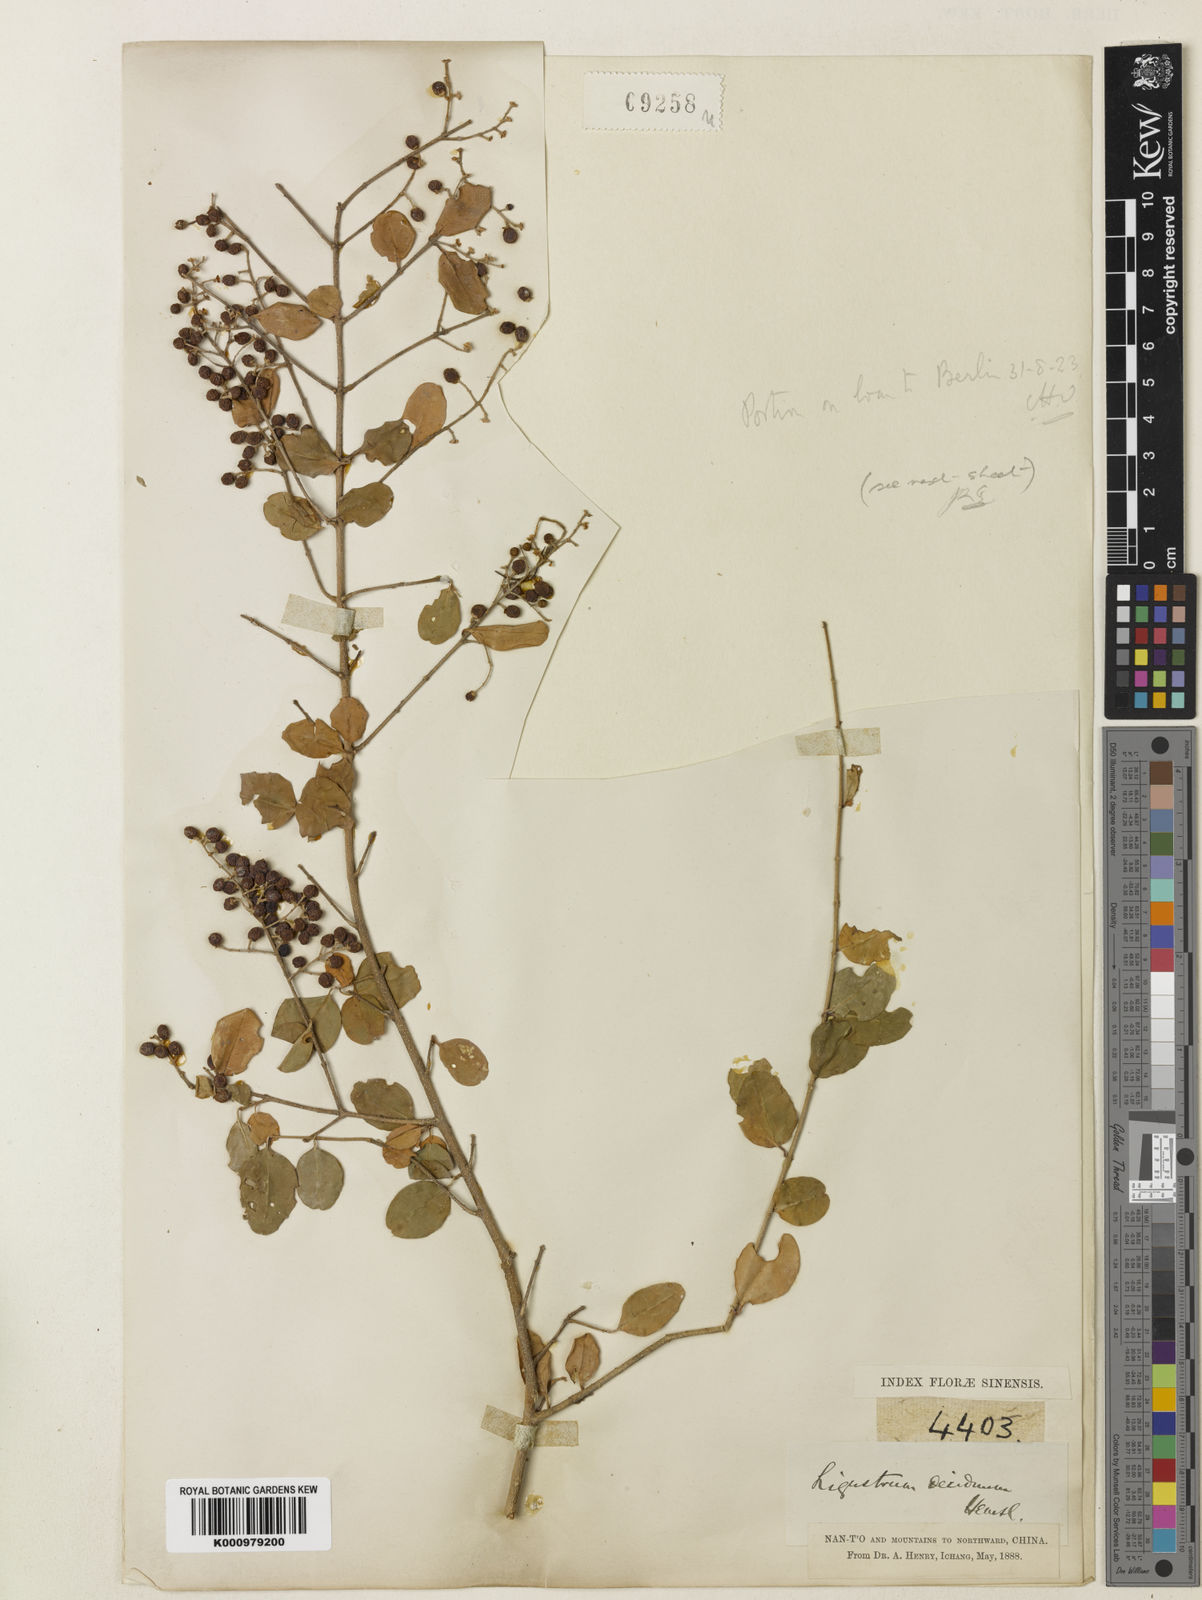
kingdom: Plantae
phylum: Tracheophyta
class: Magnoliopsida
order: Lamiales
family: Oleaceae
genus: Ligustrum
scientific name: Ligustrum sinense
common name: Chinese privet
